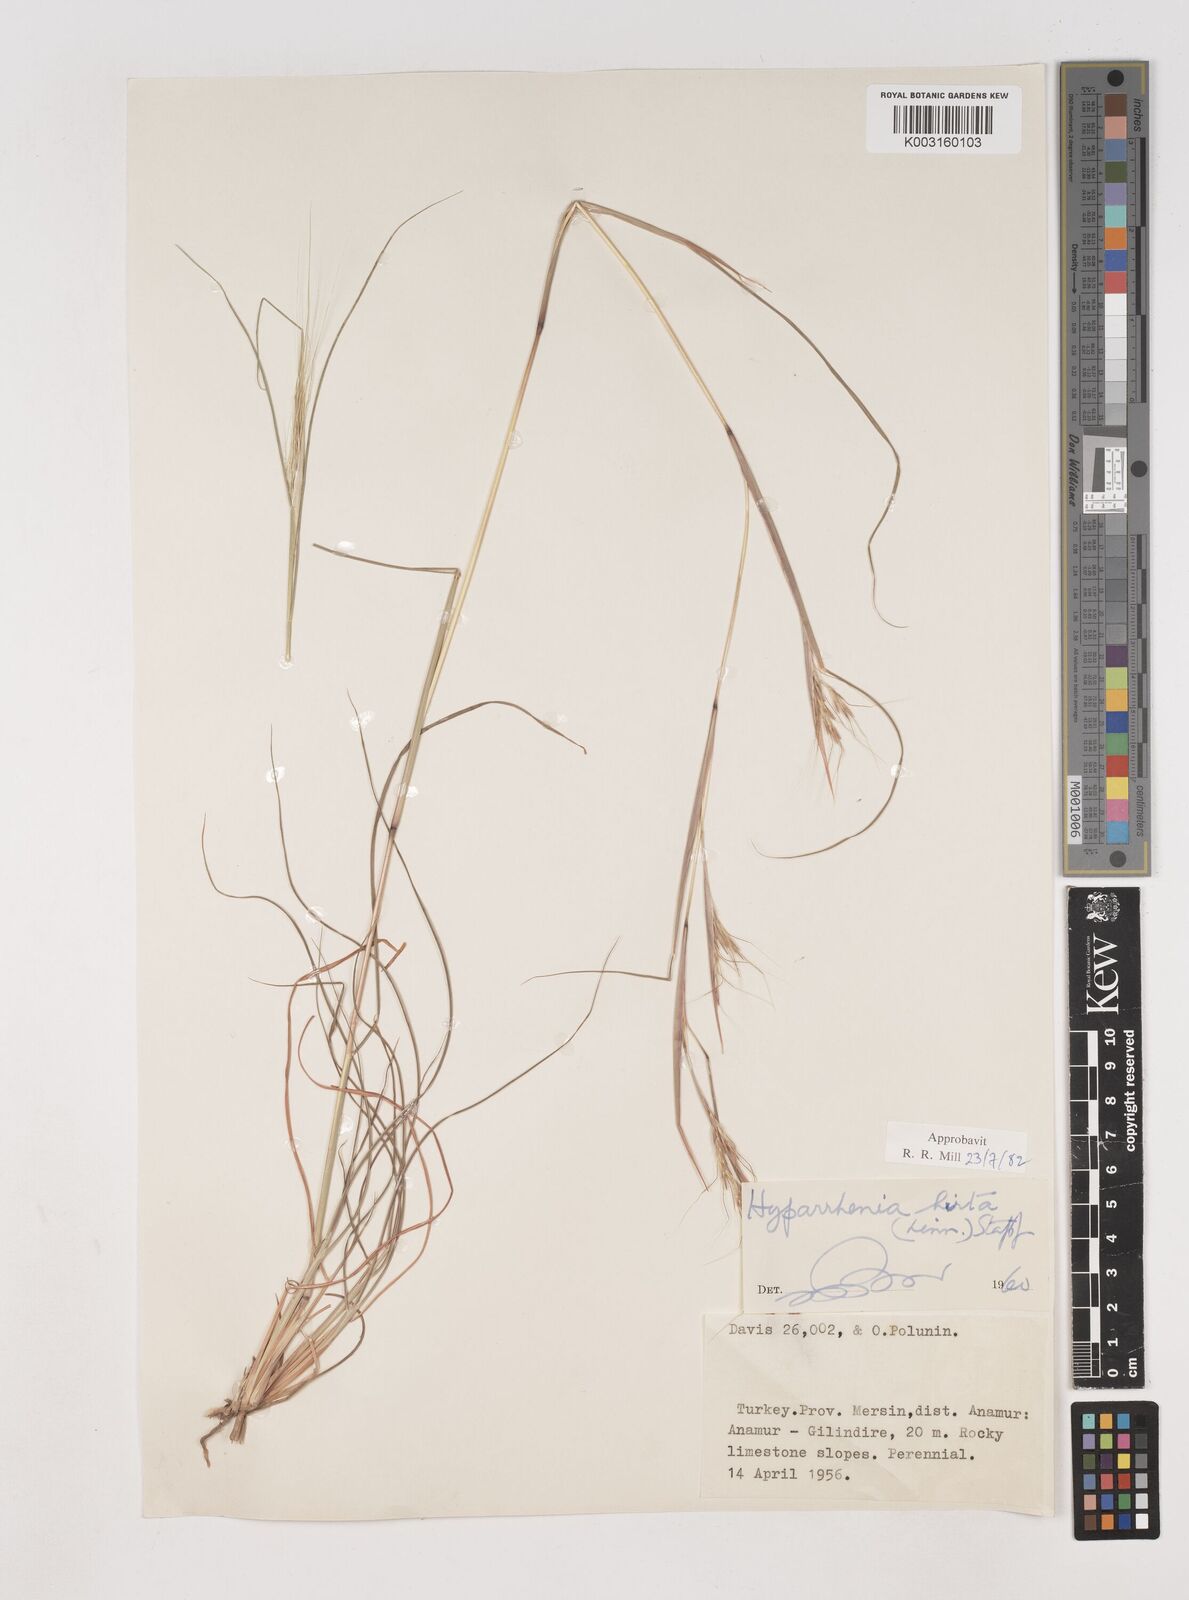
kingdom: Plantae
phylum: Tracheophyta
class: Liliopsida
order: Poales
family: Poaceae
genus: Hyparrhenia
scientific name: Hyparrhenia hirta
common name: Thatching grass
